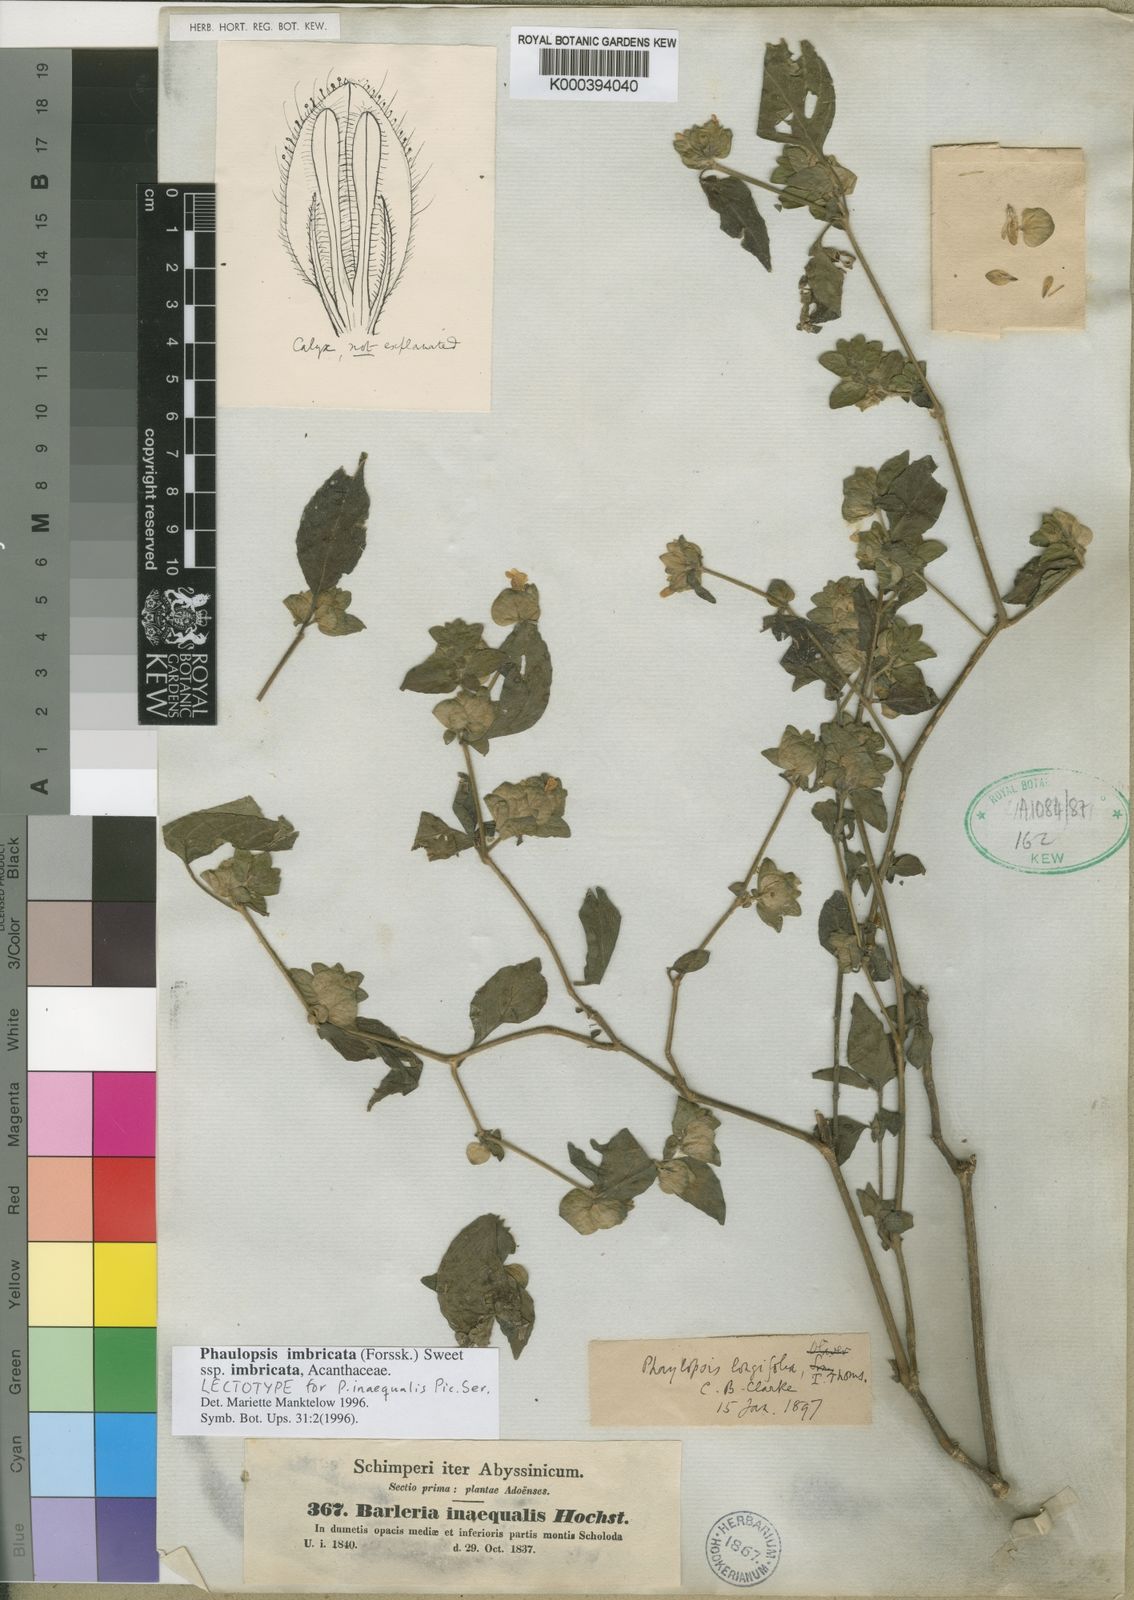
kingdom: Plantae
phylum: Tracheophyta
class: Magnoliopsida
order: Lamiales
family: Acanthaceae
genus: Phaulopsis
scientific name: Phaulopsis imbricata
